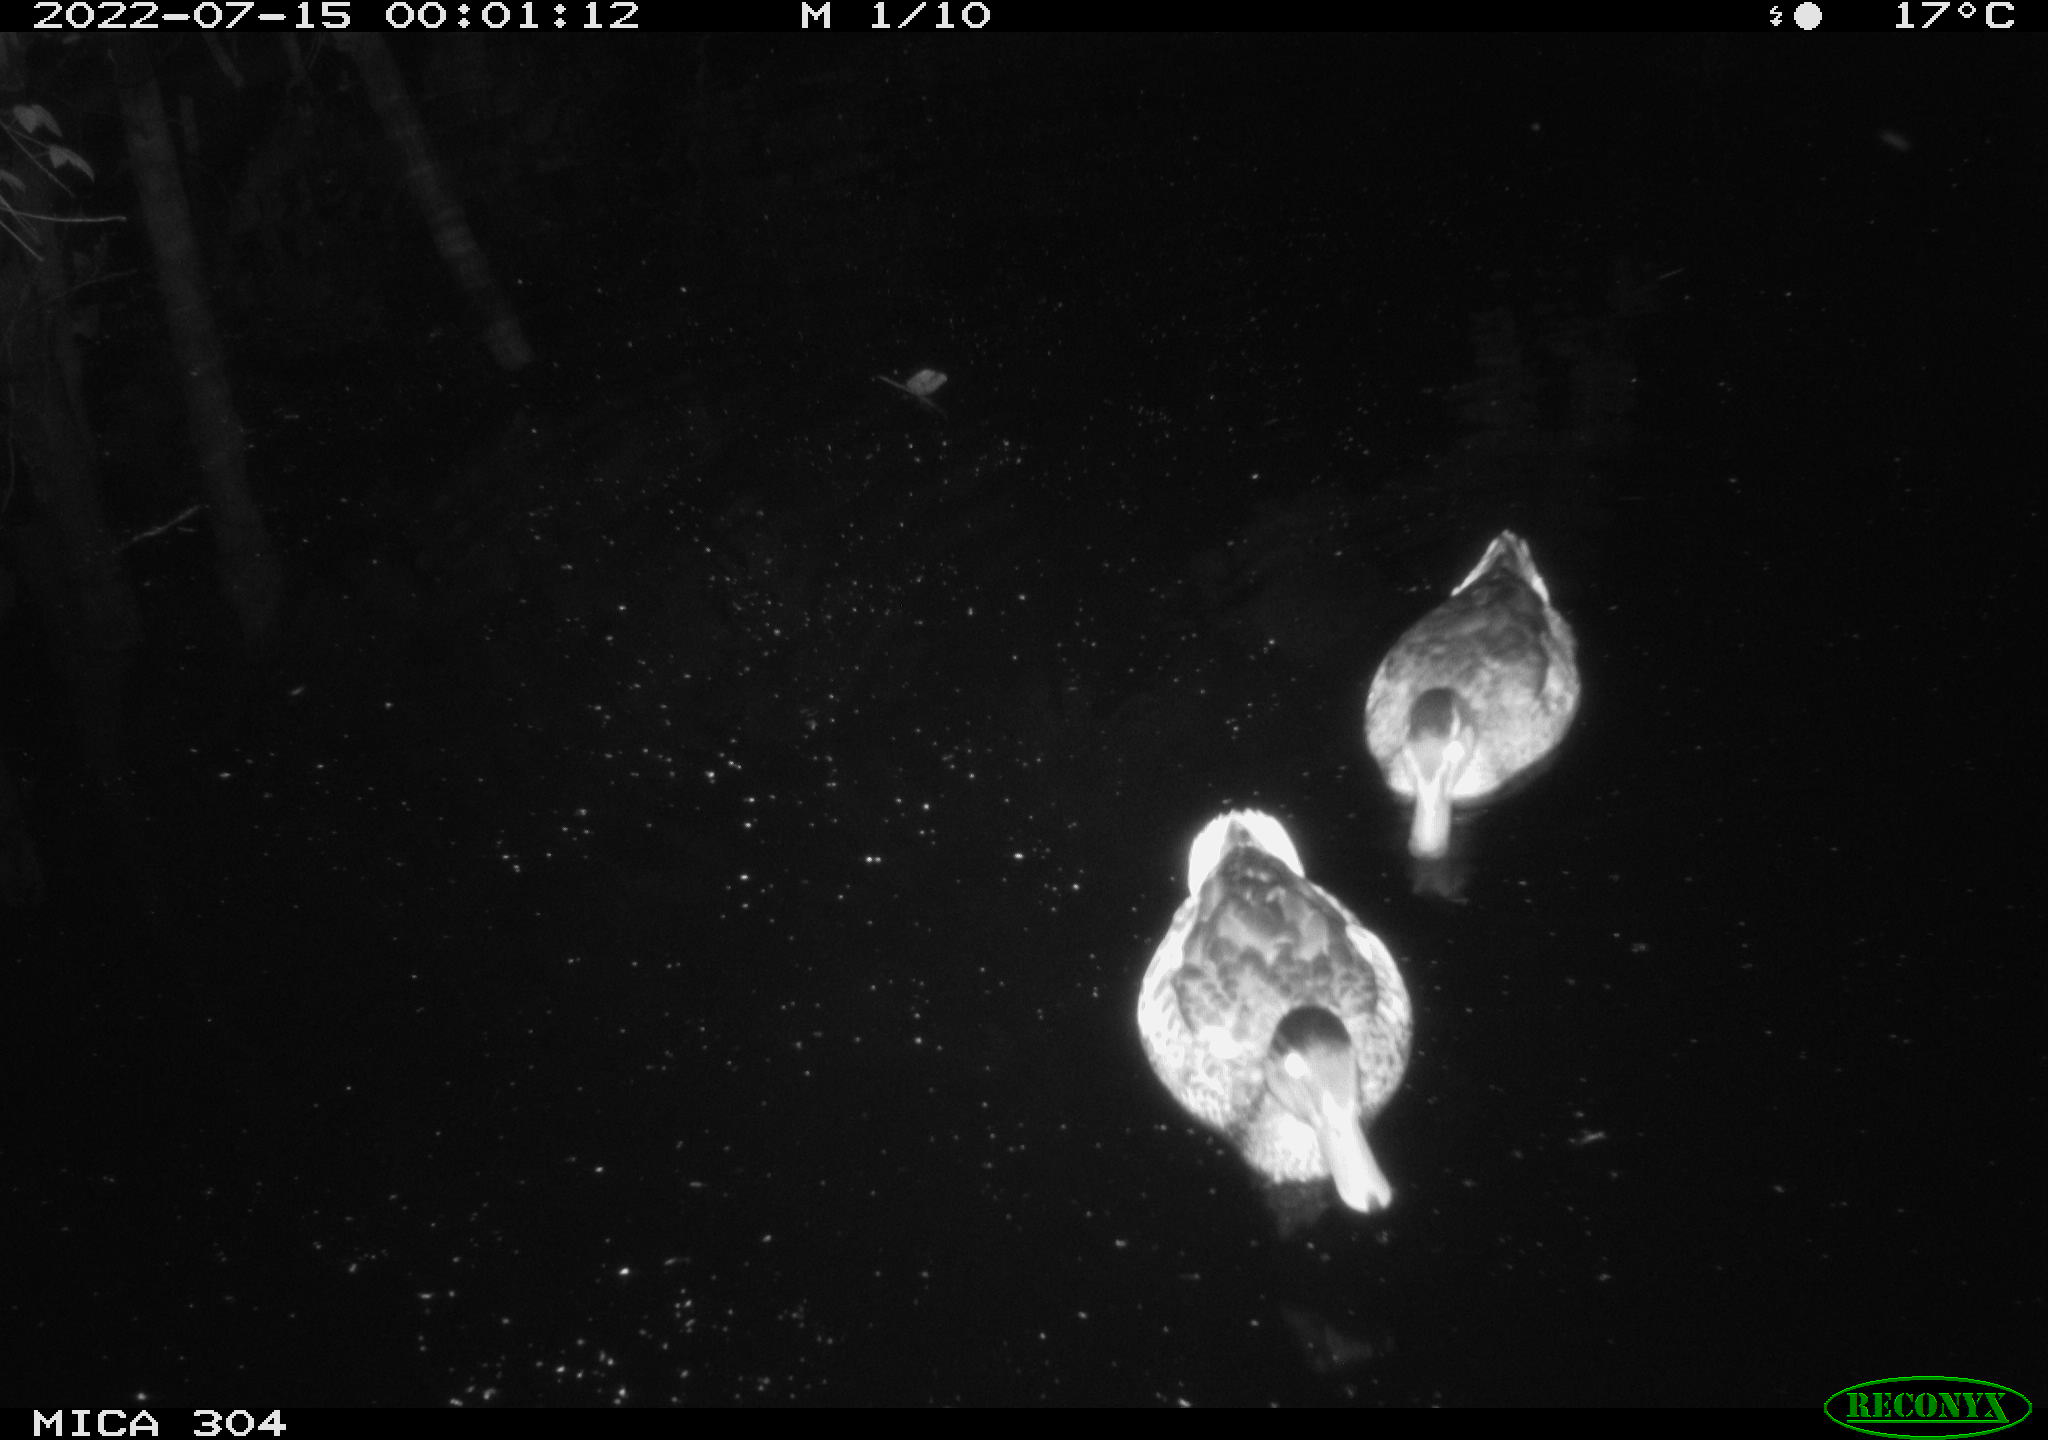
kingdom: Animalia
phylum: Chordata
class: Aves
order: Anseriformes
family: Anatidae
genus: Anas
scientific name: Anas platyrhynchos
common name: Mallard
